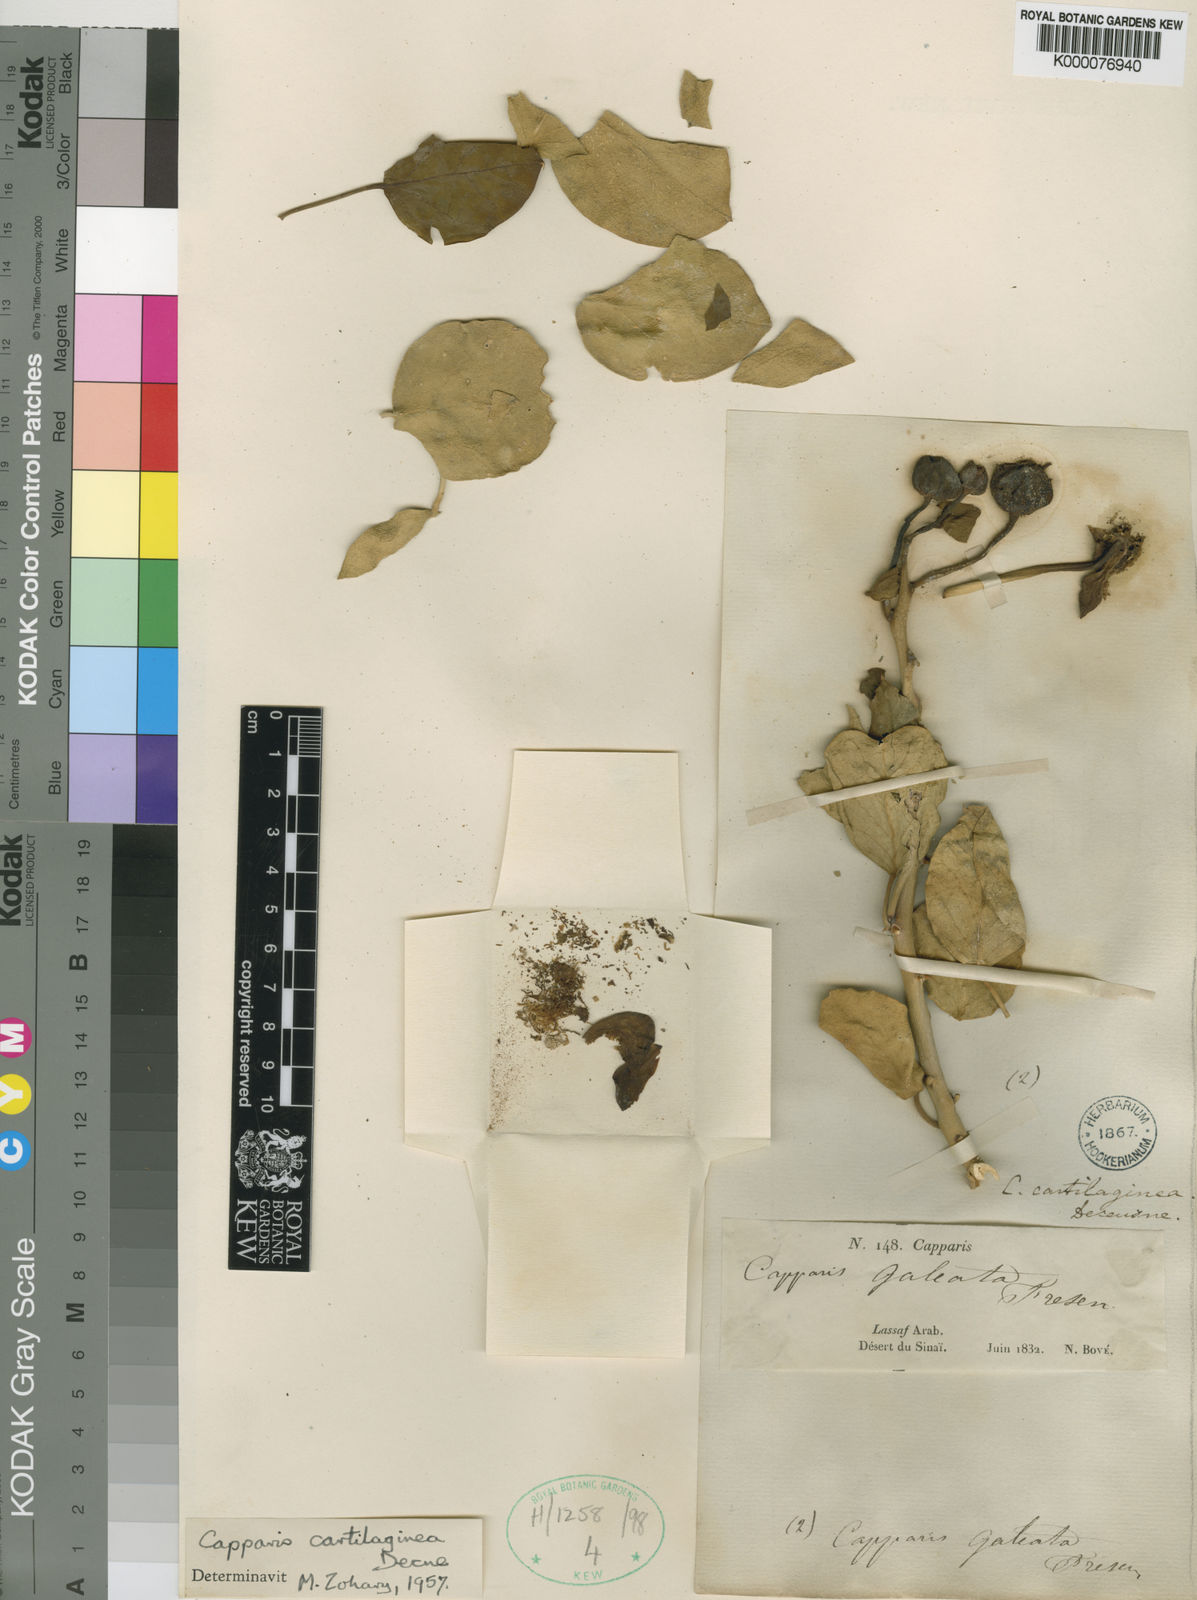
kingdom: Plantae
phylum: Tracheophyta
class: Magnoliopsida
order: Brassicales
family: Capparaceae
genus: Capparis
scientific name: Capparis cartilaginea
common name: Caper
